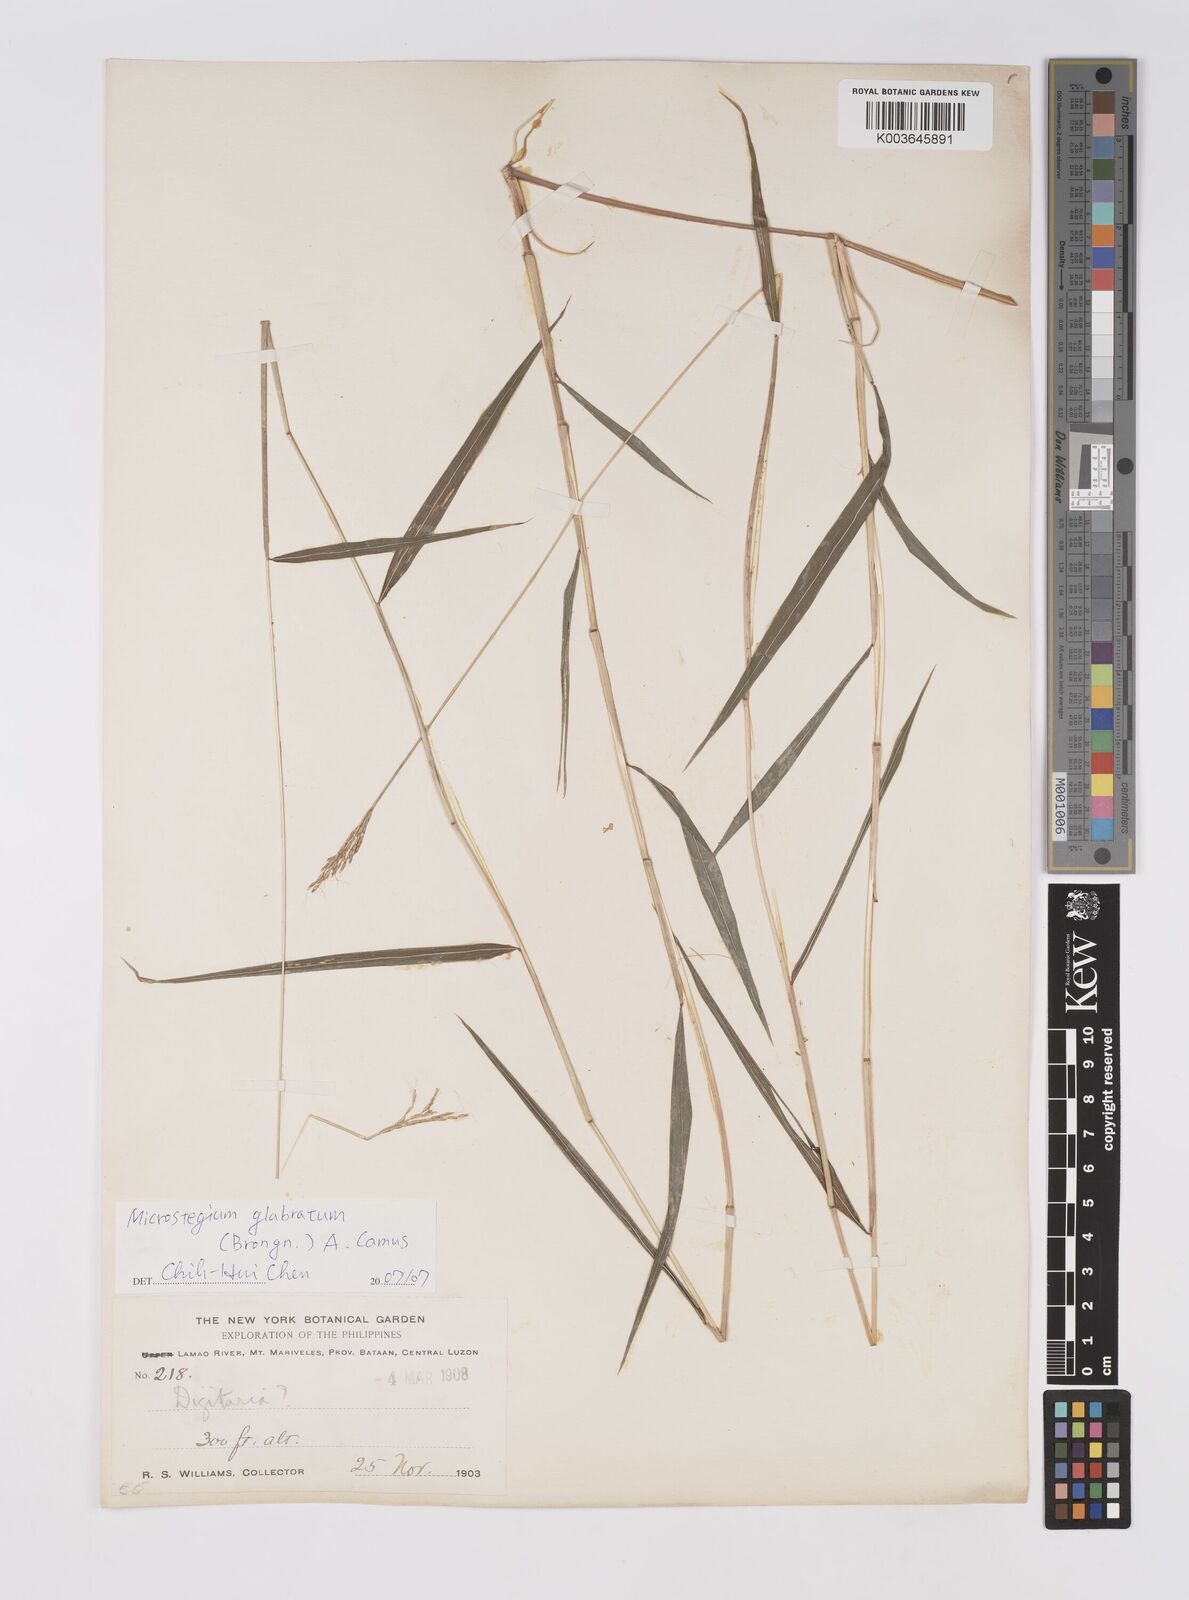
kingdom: Plantae
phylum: Tracheophyta
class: Liliopsida
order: Poales
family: Poaceae
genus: Microstegium
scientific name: Microstegium glabratum
